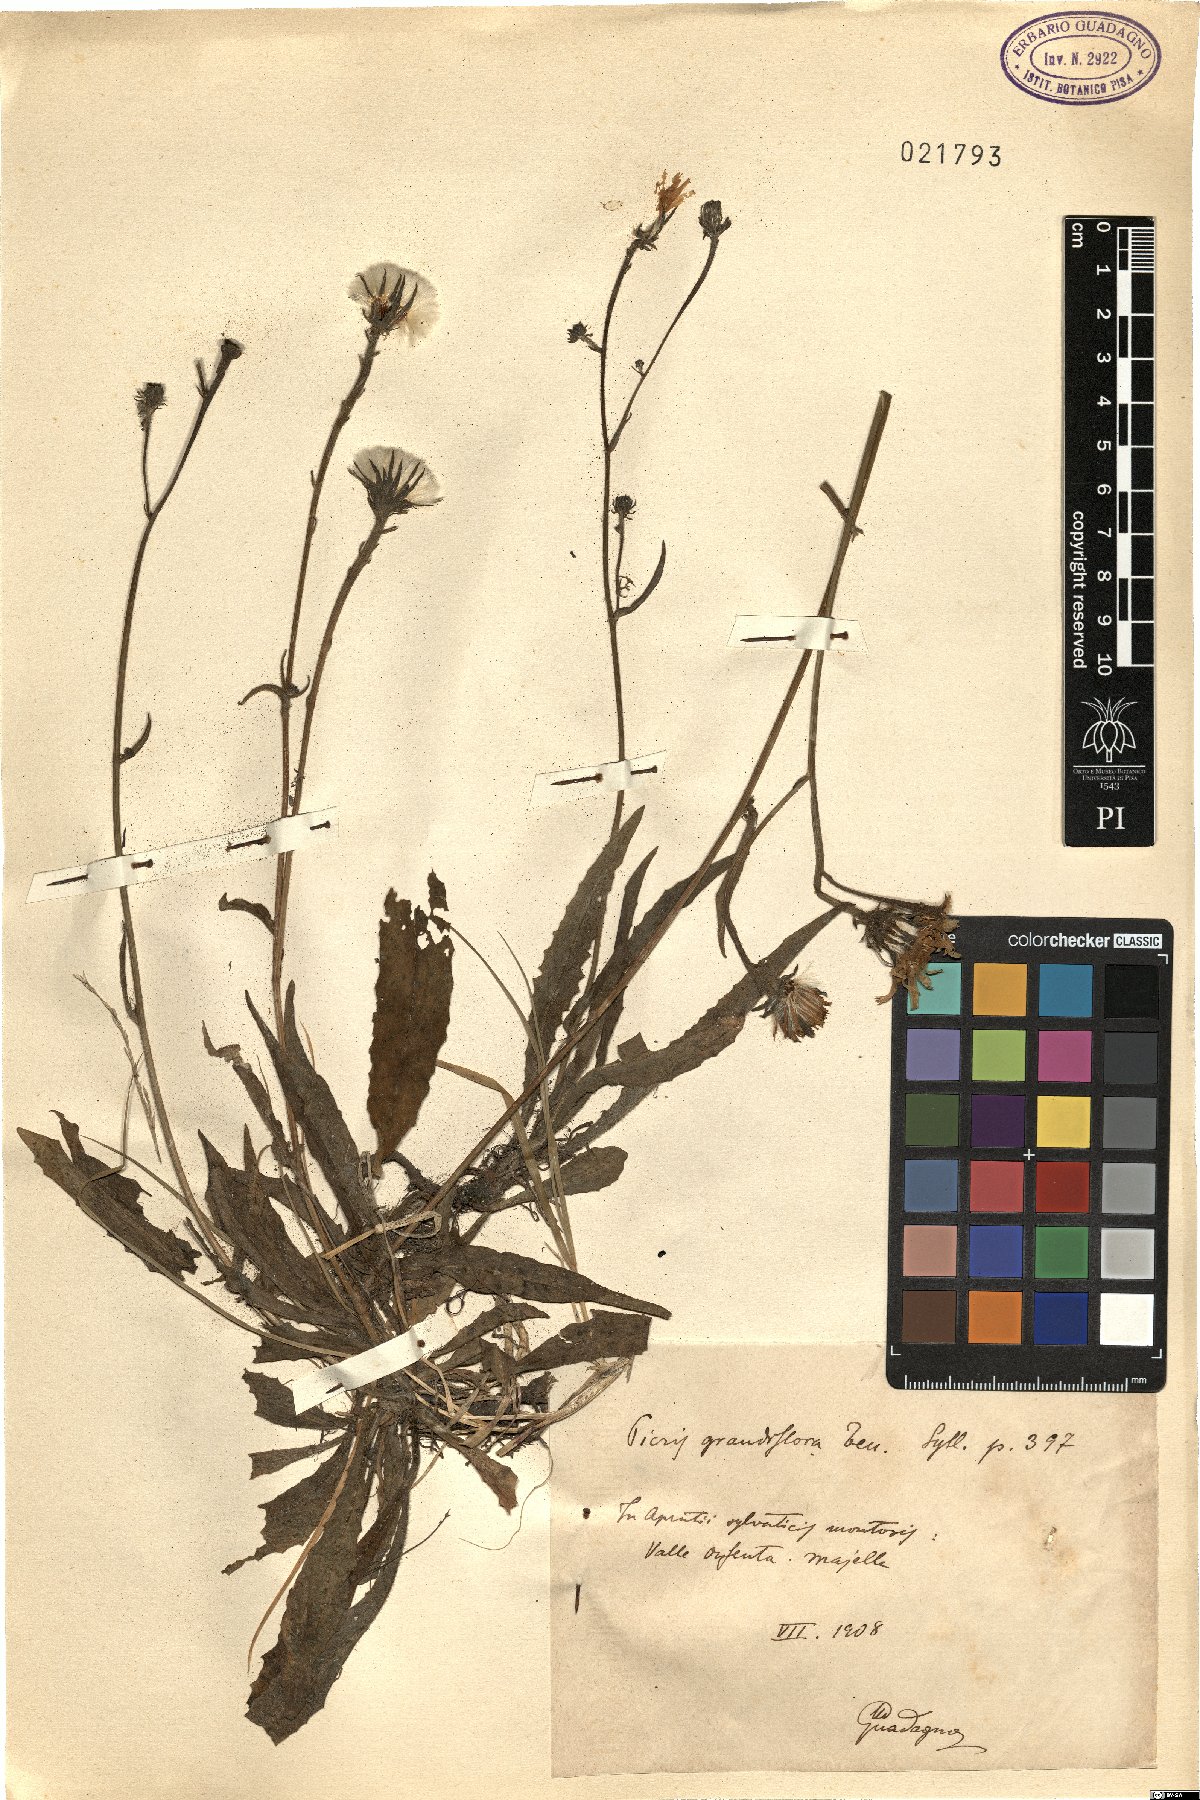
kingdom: Plantae
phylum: Tracheophyta
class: Magnoliopsida
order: Asterales
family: Asteraceae
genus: Picris
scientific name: Picris hieracioides
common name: Hawkweed oxtongue
